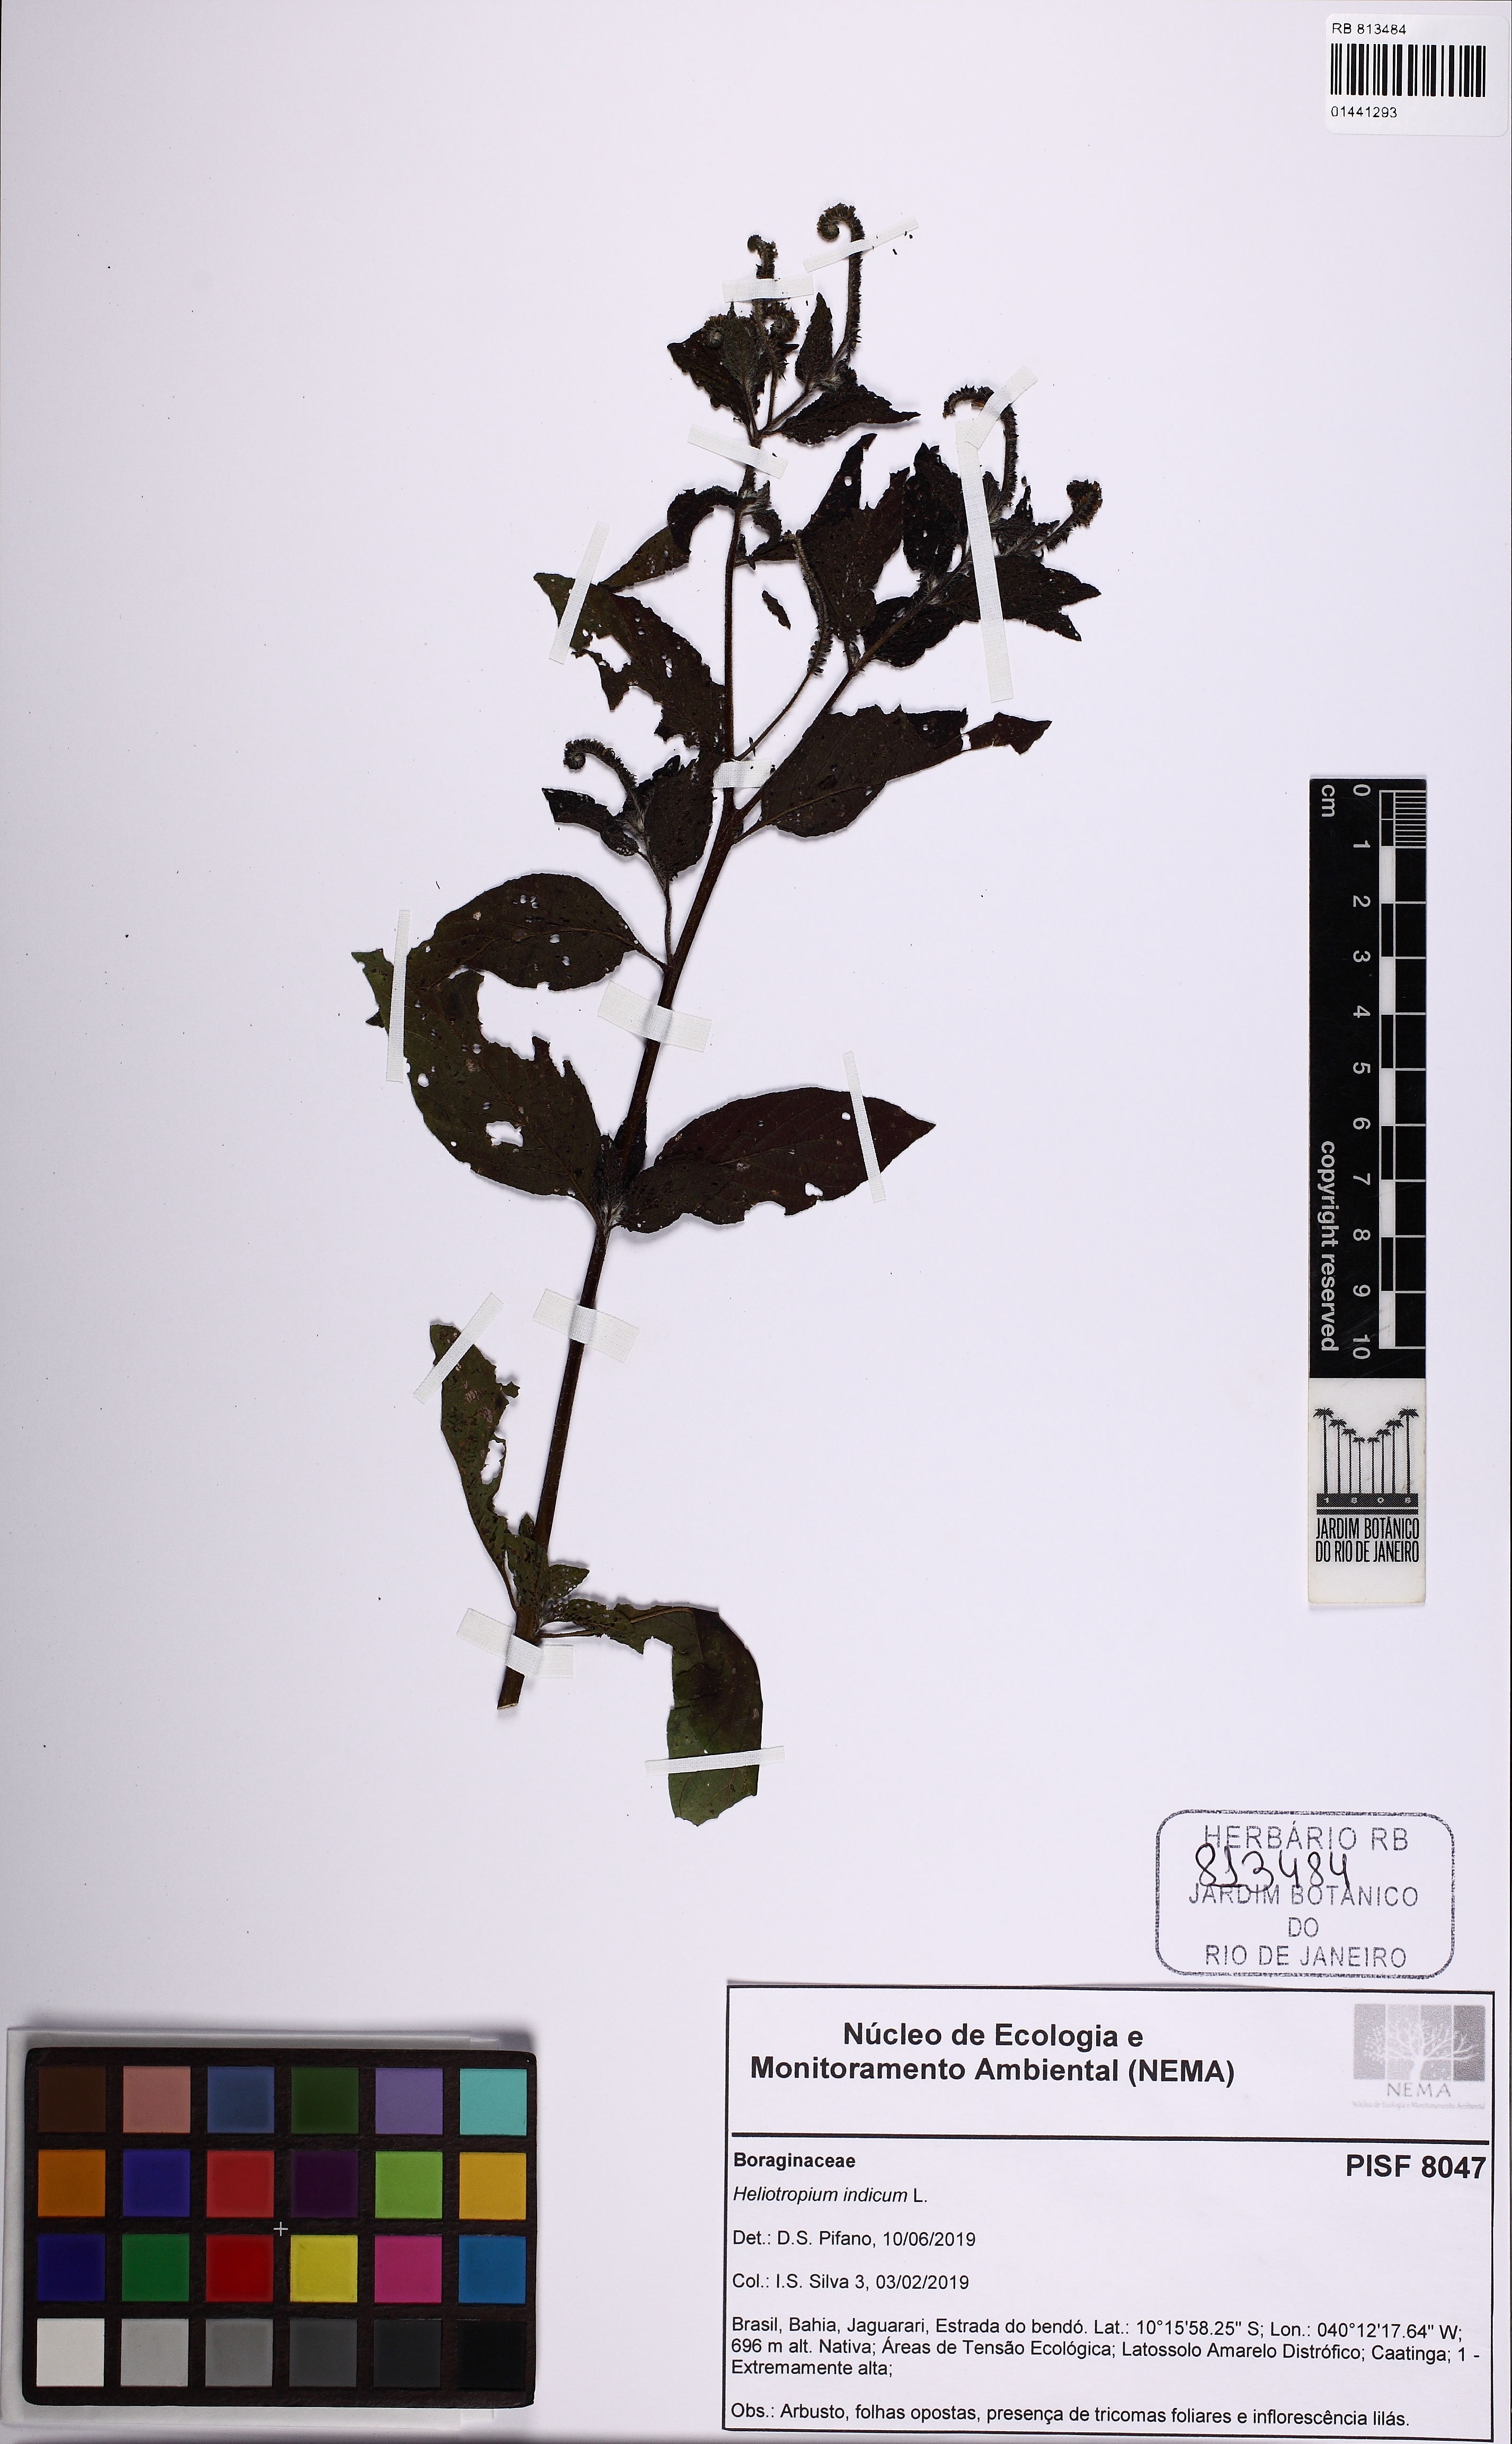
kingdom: Plantae
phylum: Tracheophyta
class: Magnoliopsida
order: Boraginales
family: Heliotropiaceae
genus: Heliotropium
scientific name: Heliotropium indicum
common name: Indian heliotrope
